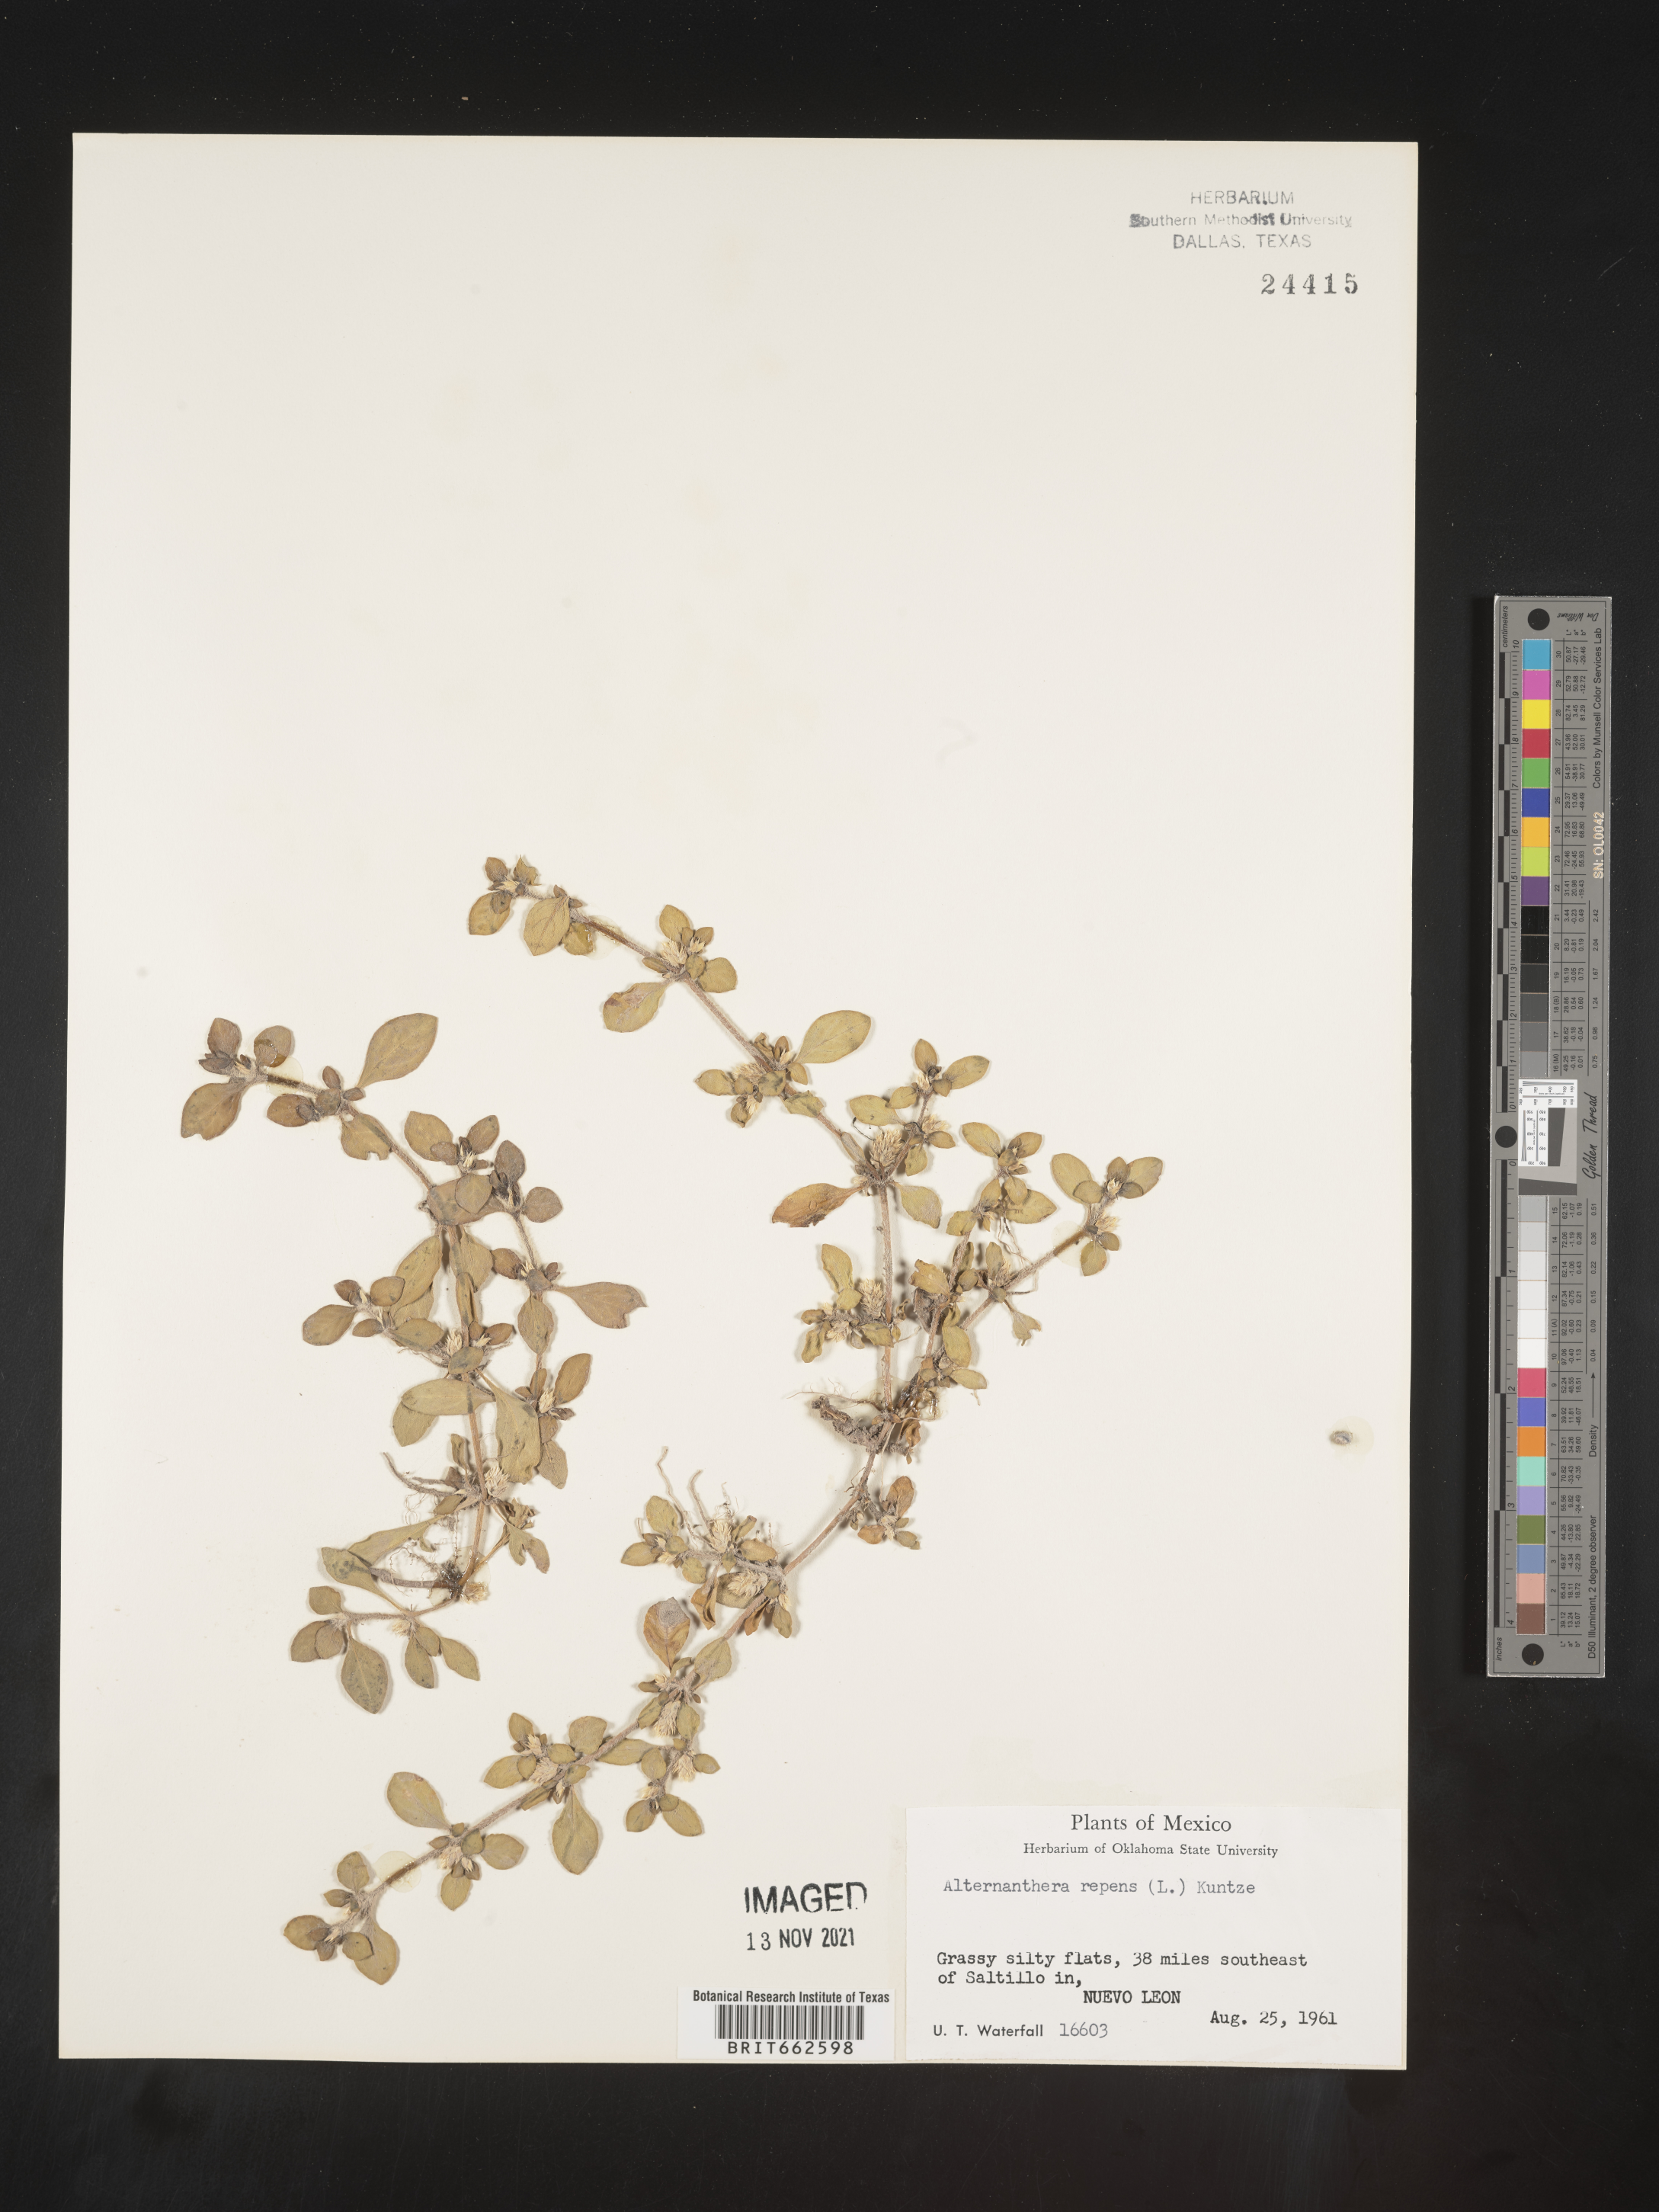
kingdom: Plantae
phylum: Tracheophyta
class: Magnoliopsida
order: Caryophyllales
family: Amaranthaceae
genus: Alternanthera
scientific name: Alternanthera
